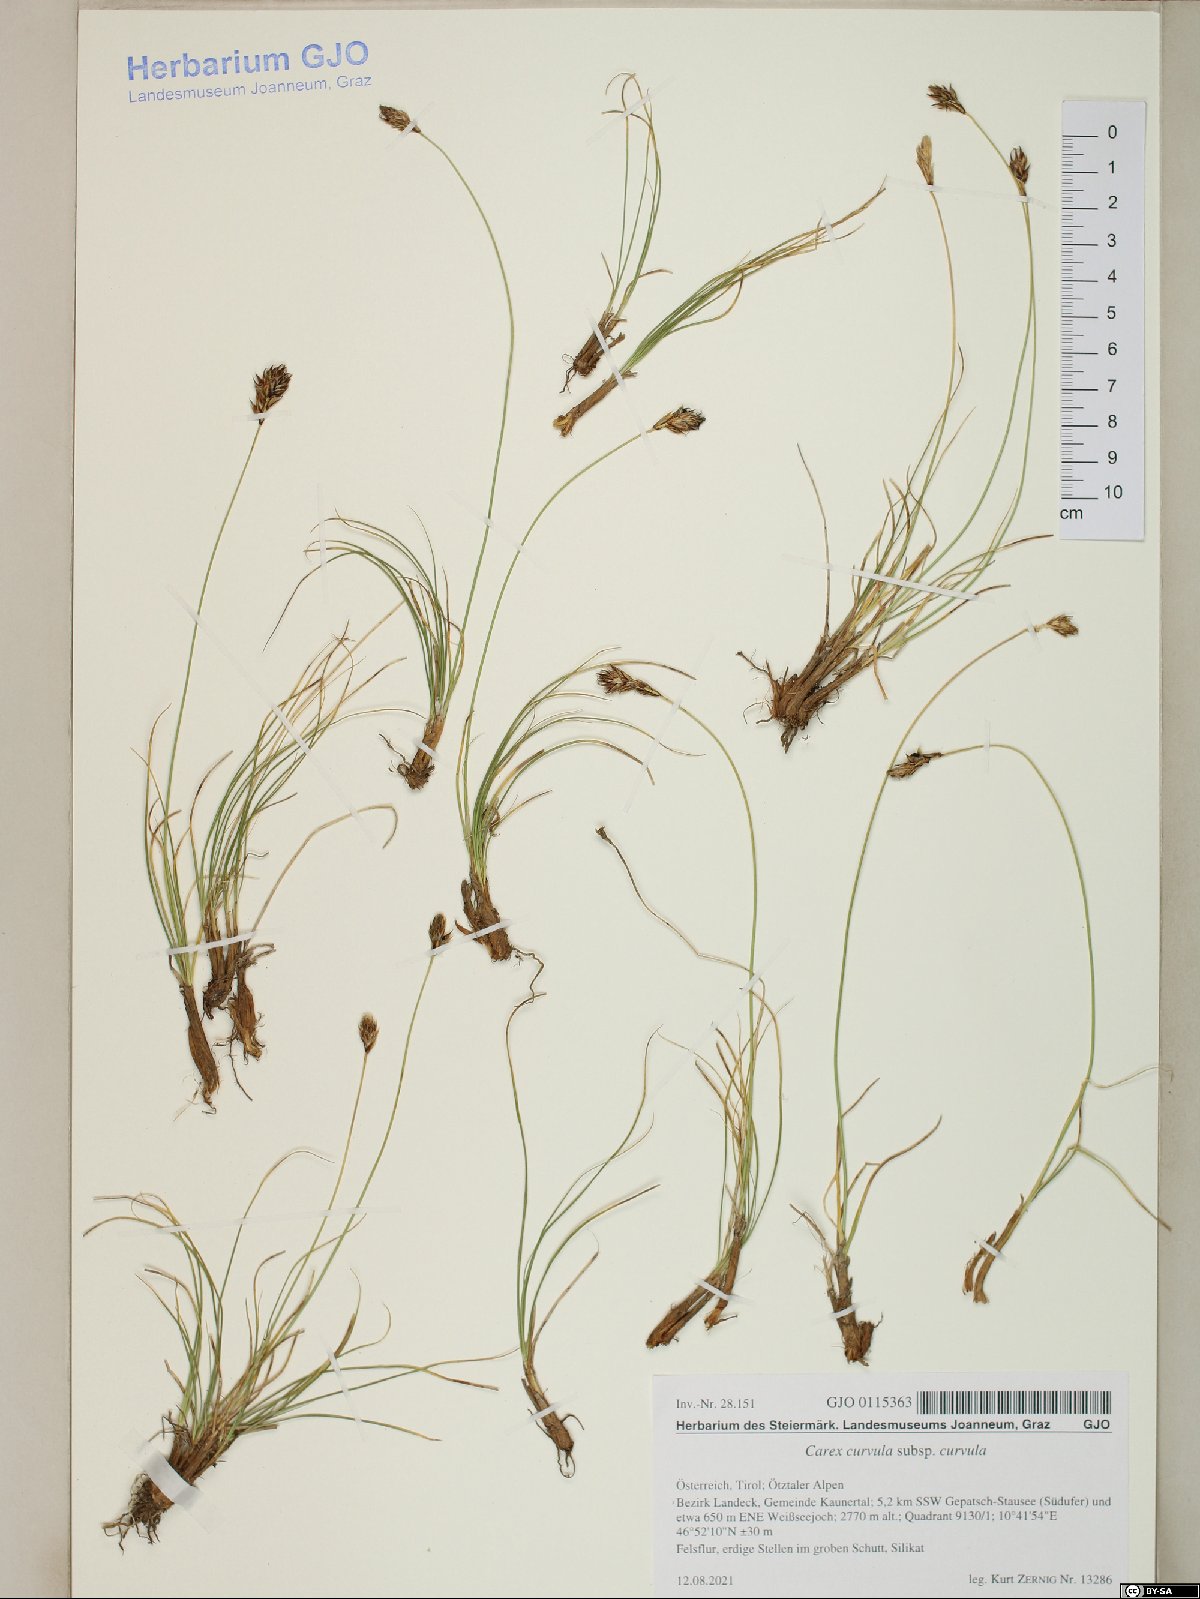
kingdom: Plantae
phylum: Tracheophyta
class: Liliopsida
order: Poales
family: Cyperaceae
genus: Carex
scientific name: Carex curvula
